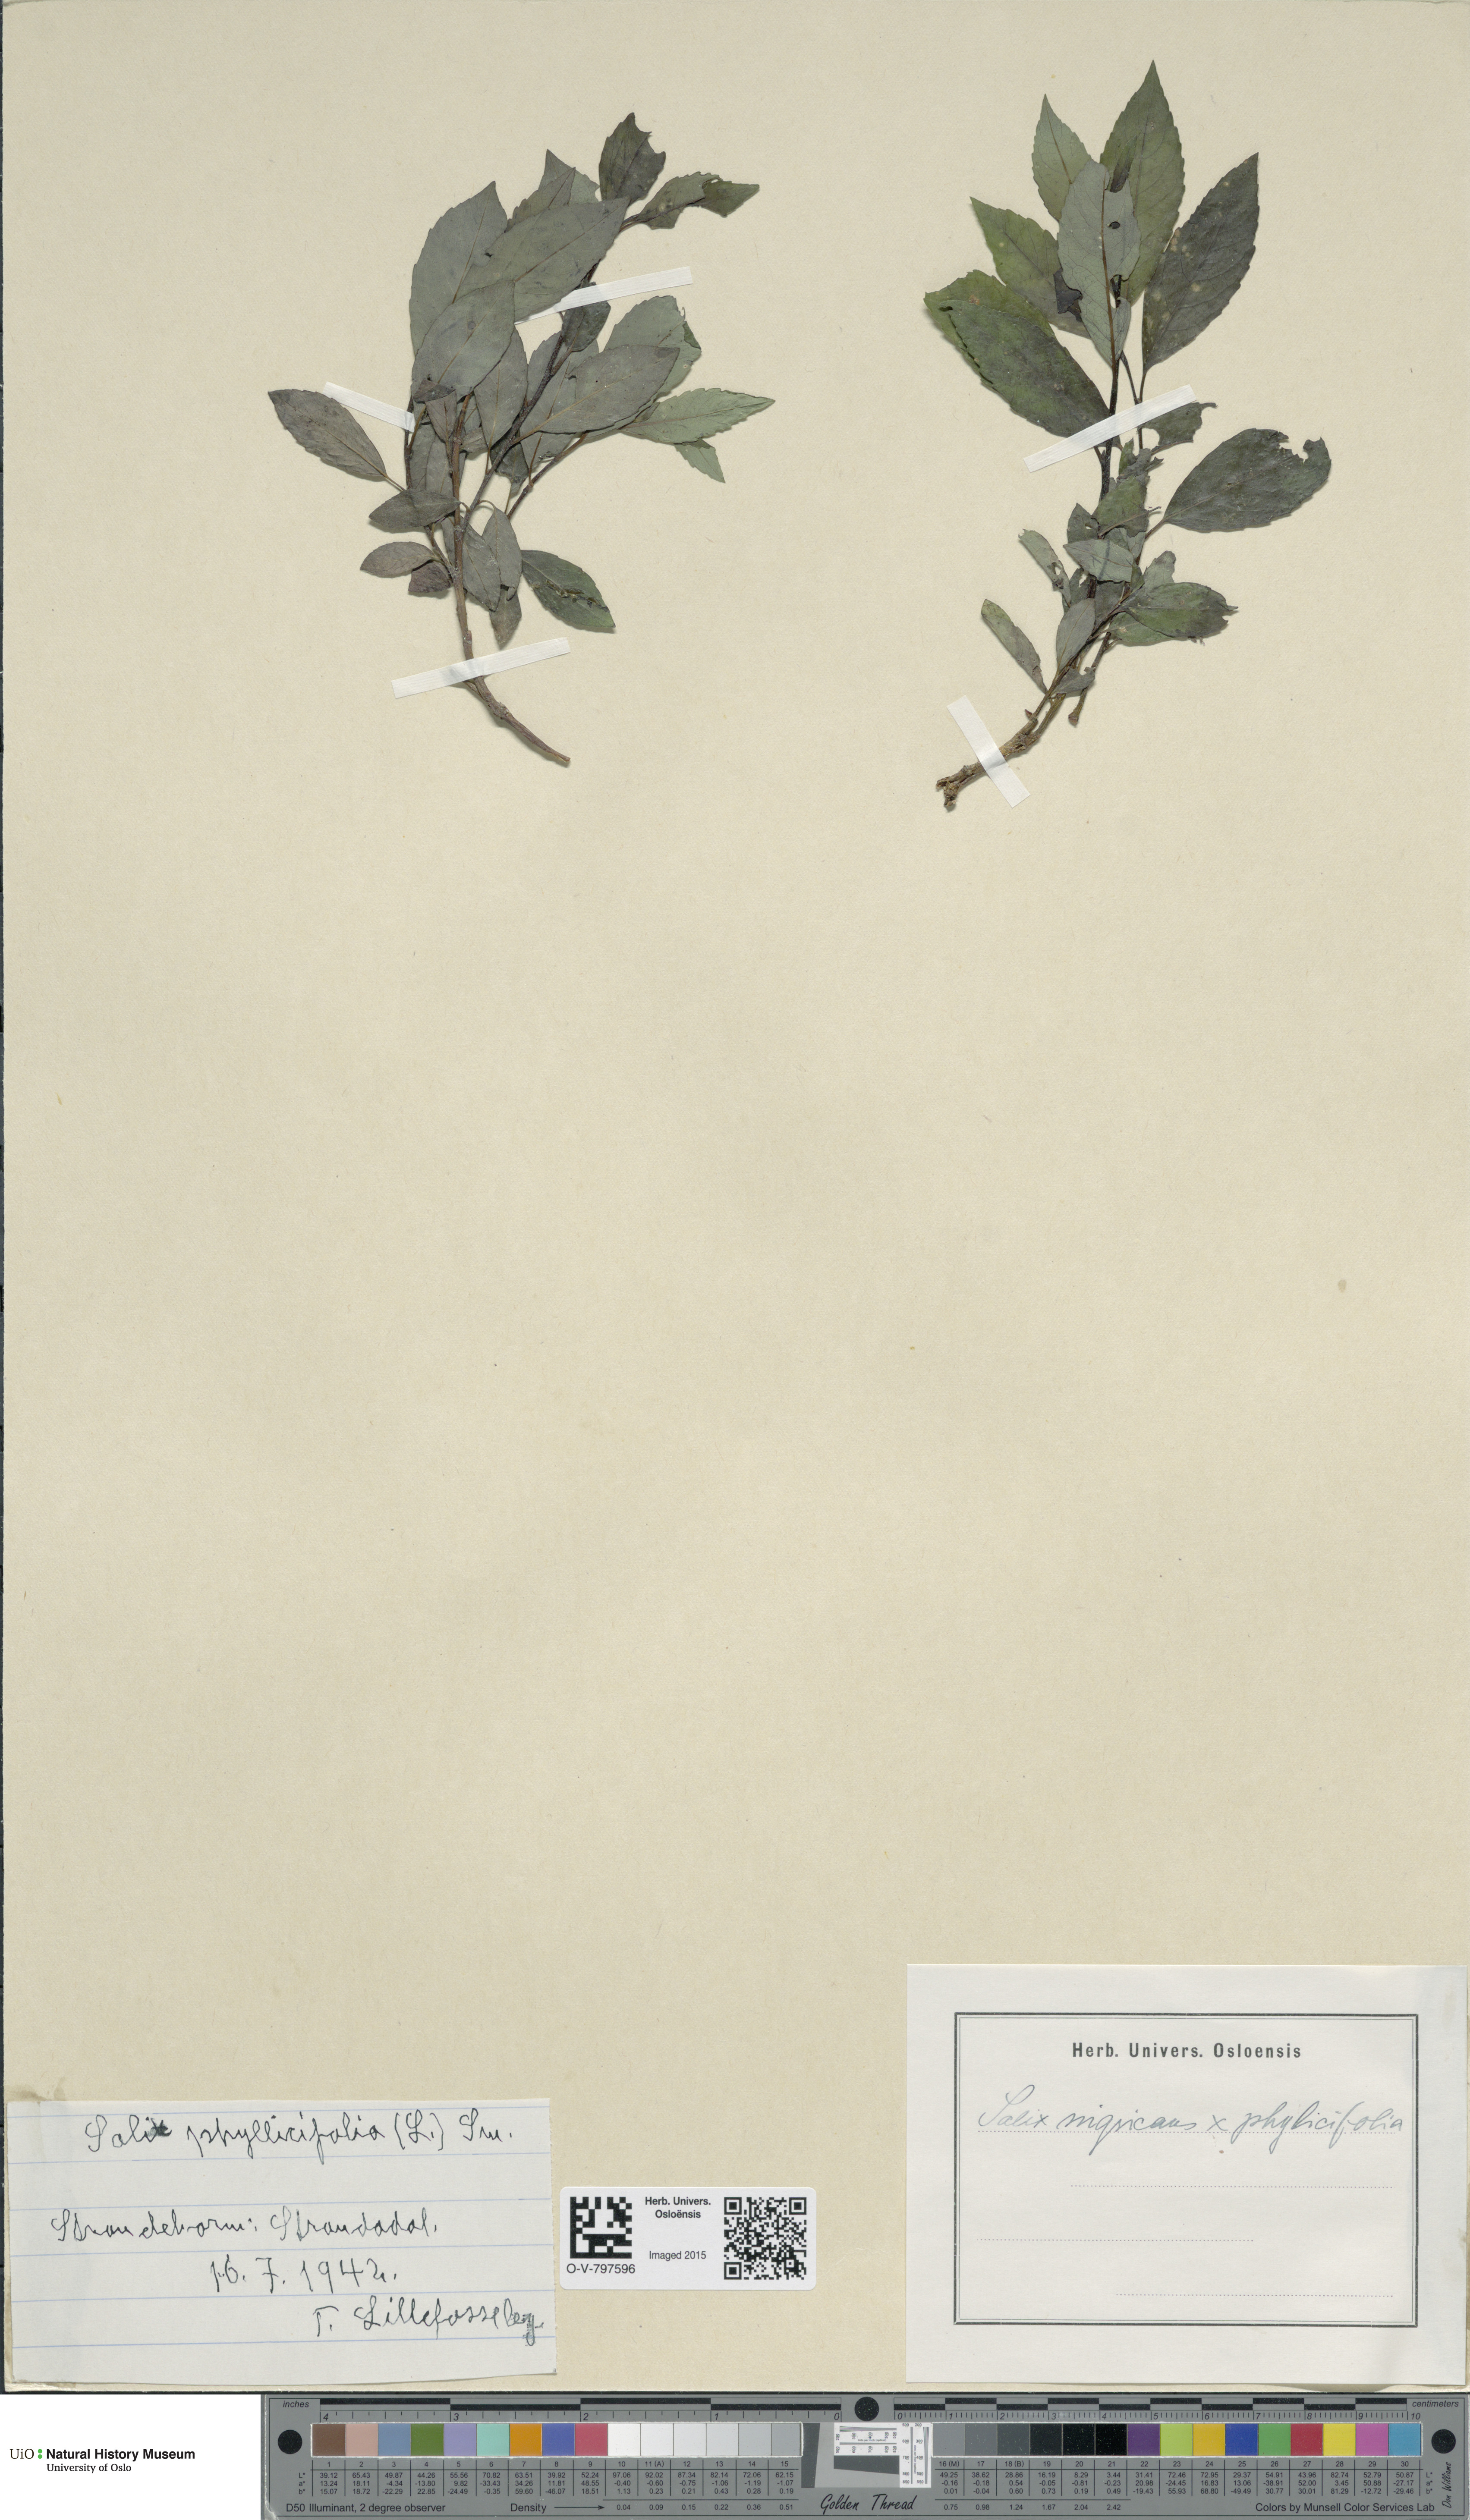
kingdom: Plantae
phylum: Tracheophyta
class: Magnoliopsida
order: Malpighiales
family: Salicaceae
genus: Salix
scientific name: Salix
